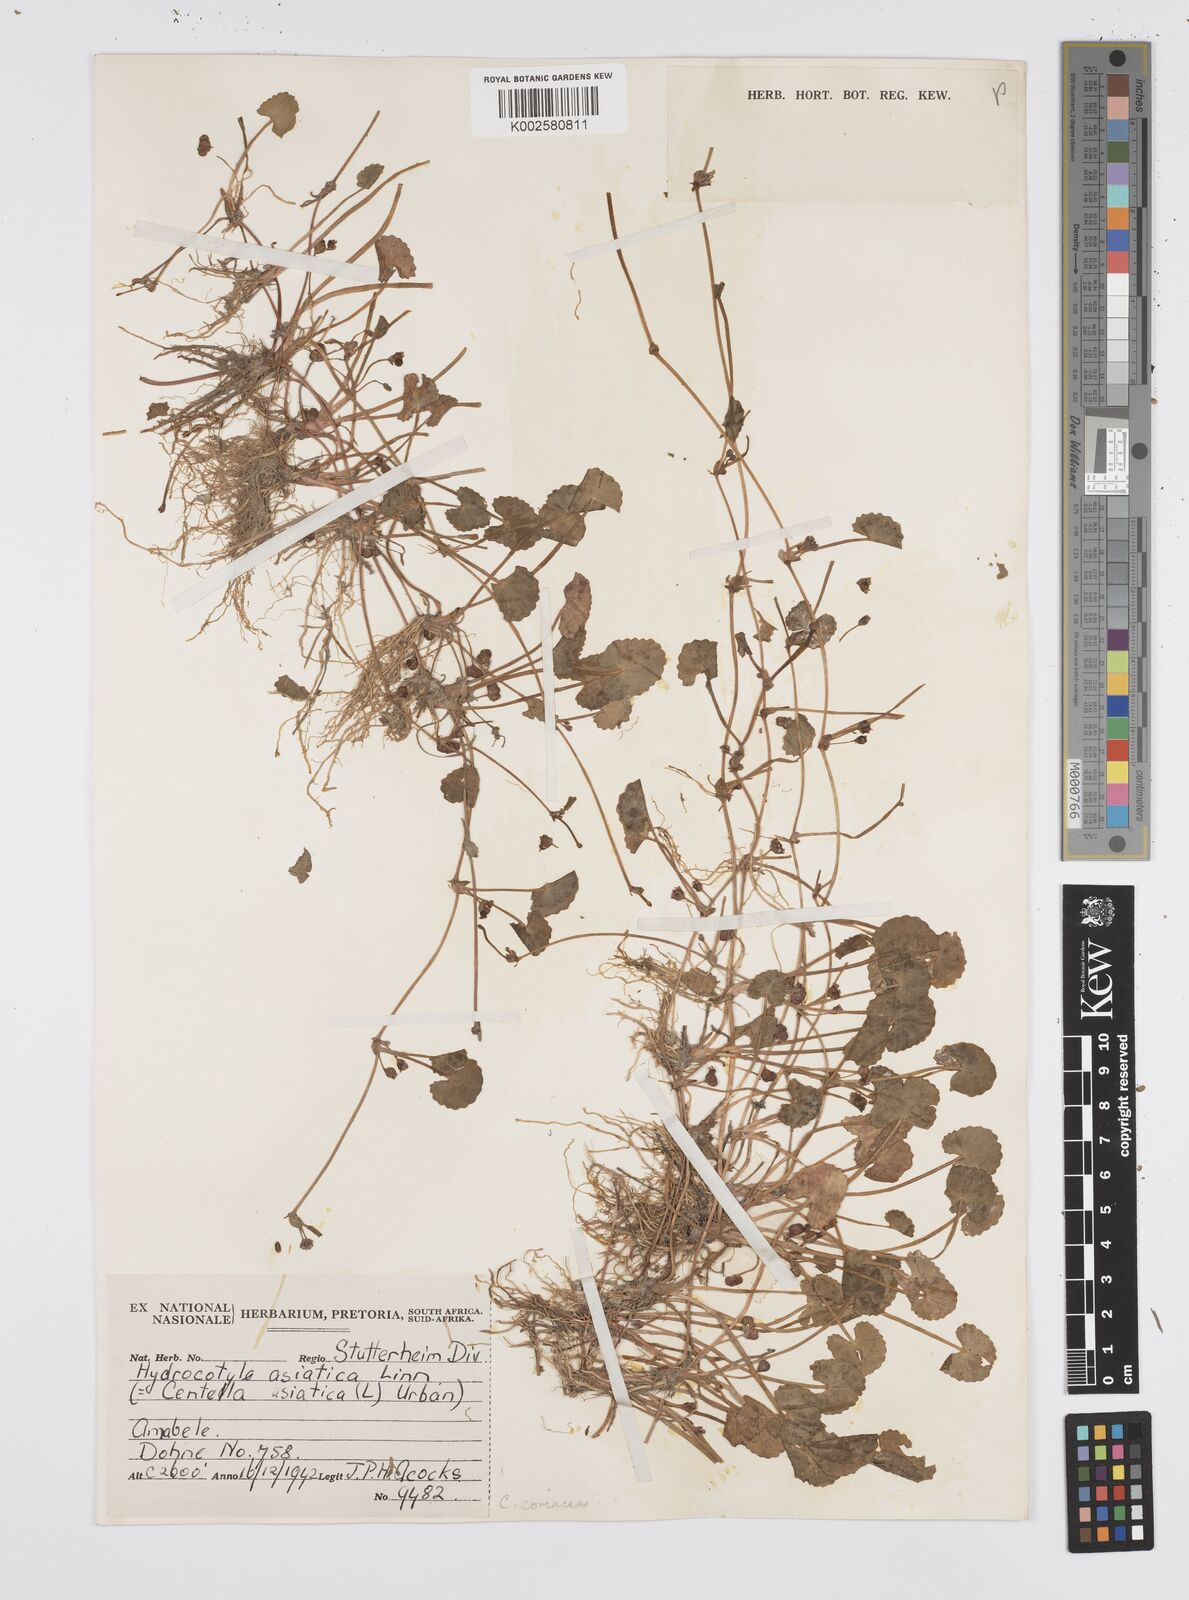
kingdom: Plantae
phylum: Tracheophyta
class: Magnoliopsida
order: Apiales
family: Apiaceae
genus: Centella
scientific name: Centella coriacea
